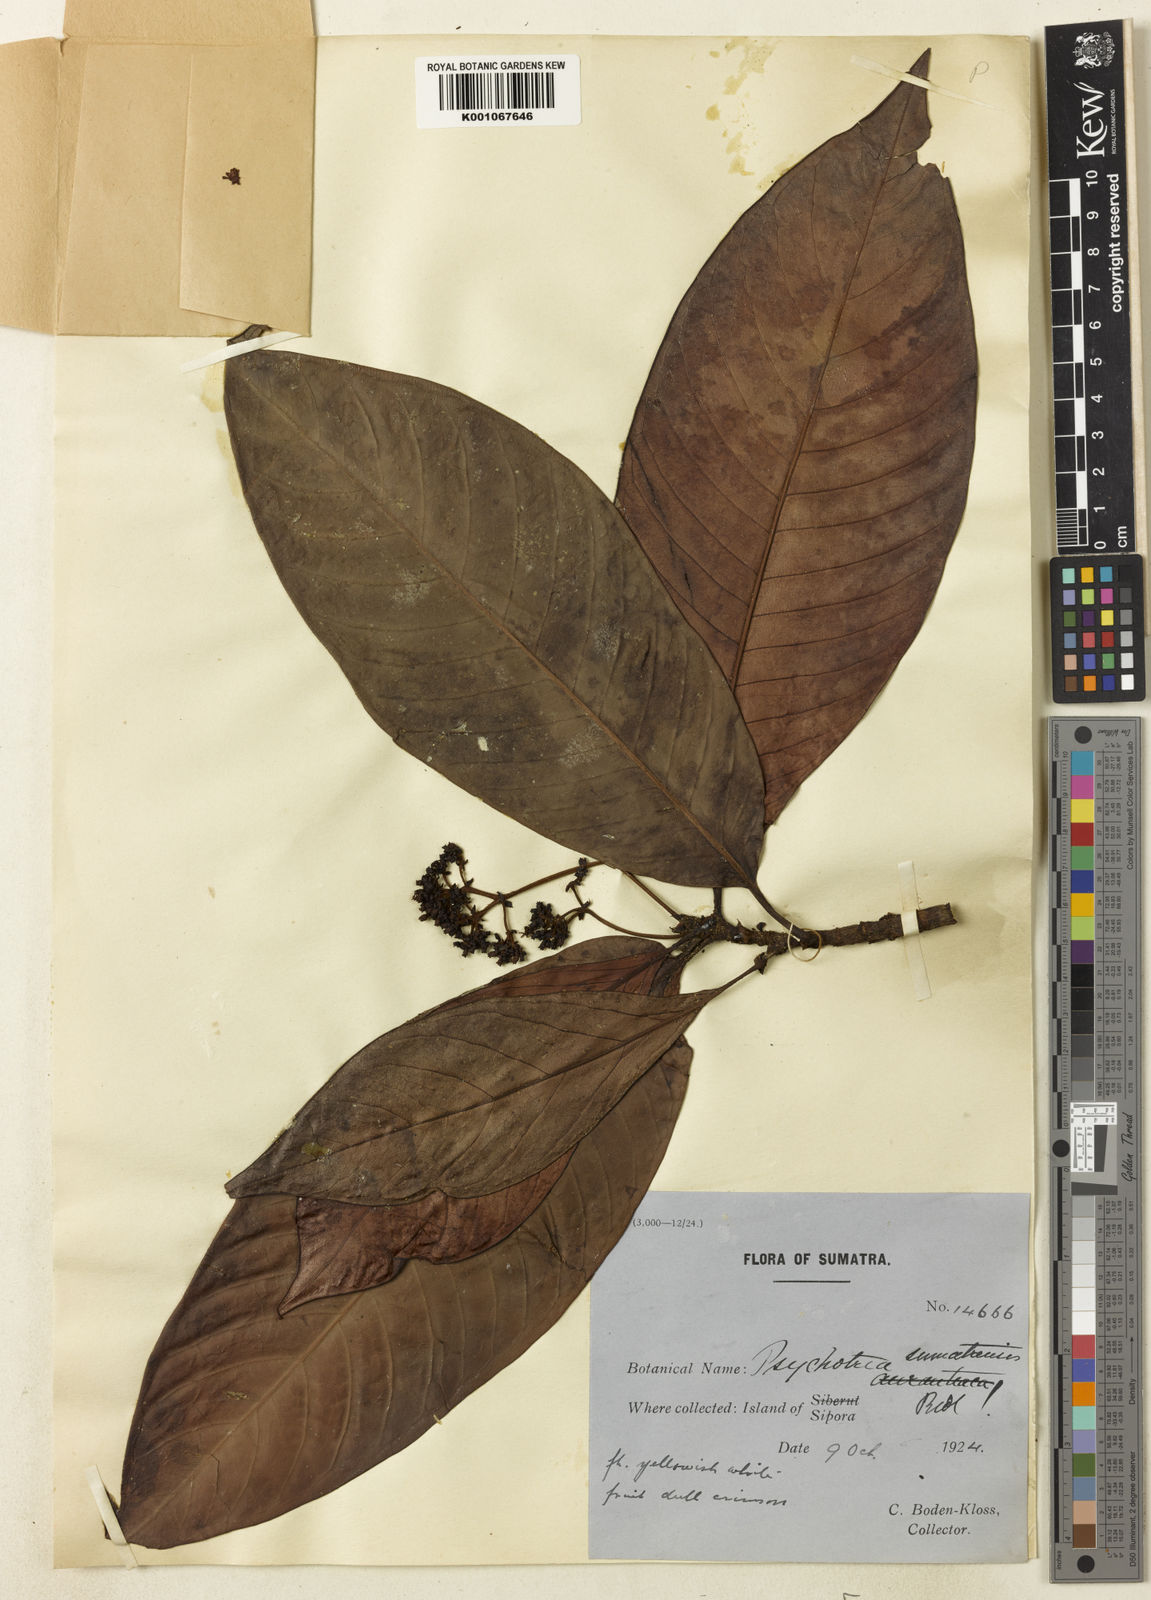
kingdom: Plantae
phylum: Tracheophyta
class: Magnoliopsida
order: Gentianales
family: Rubiaceae
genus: Psychotria
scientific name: Psychotria sumatrensis
